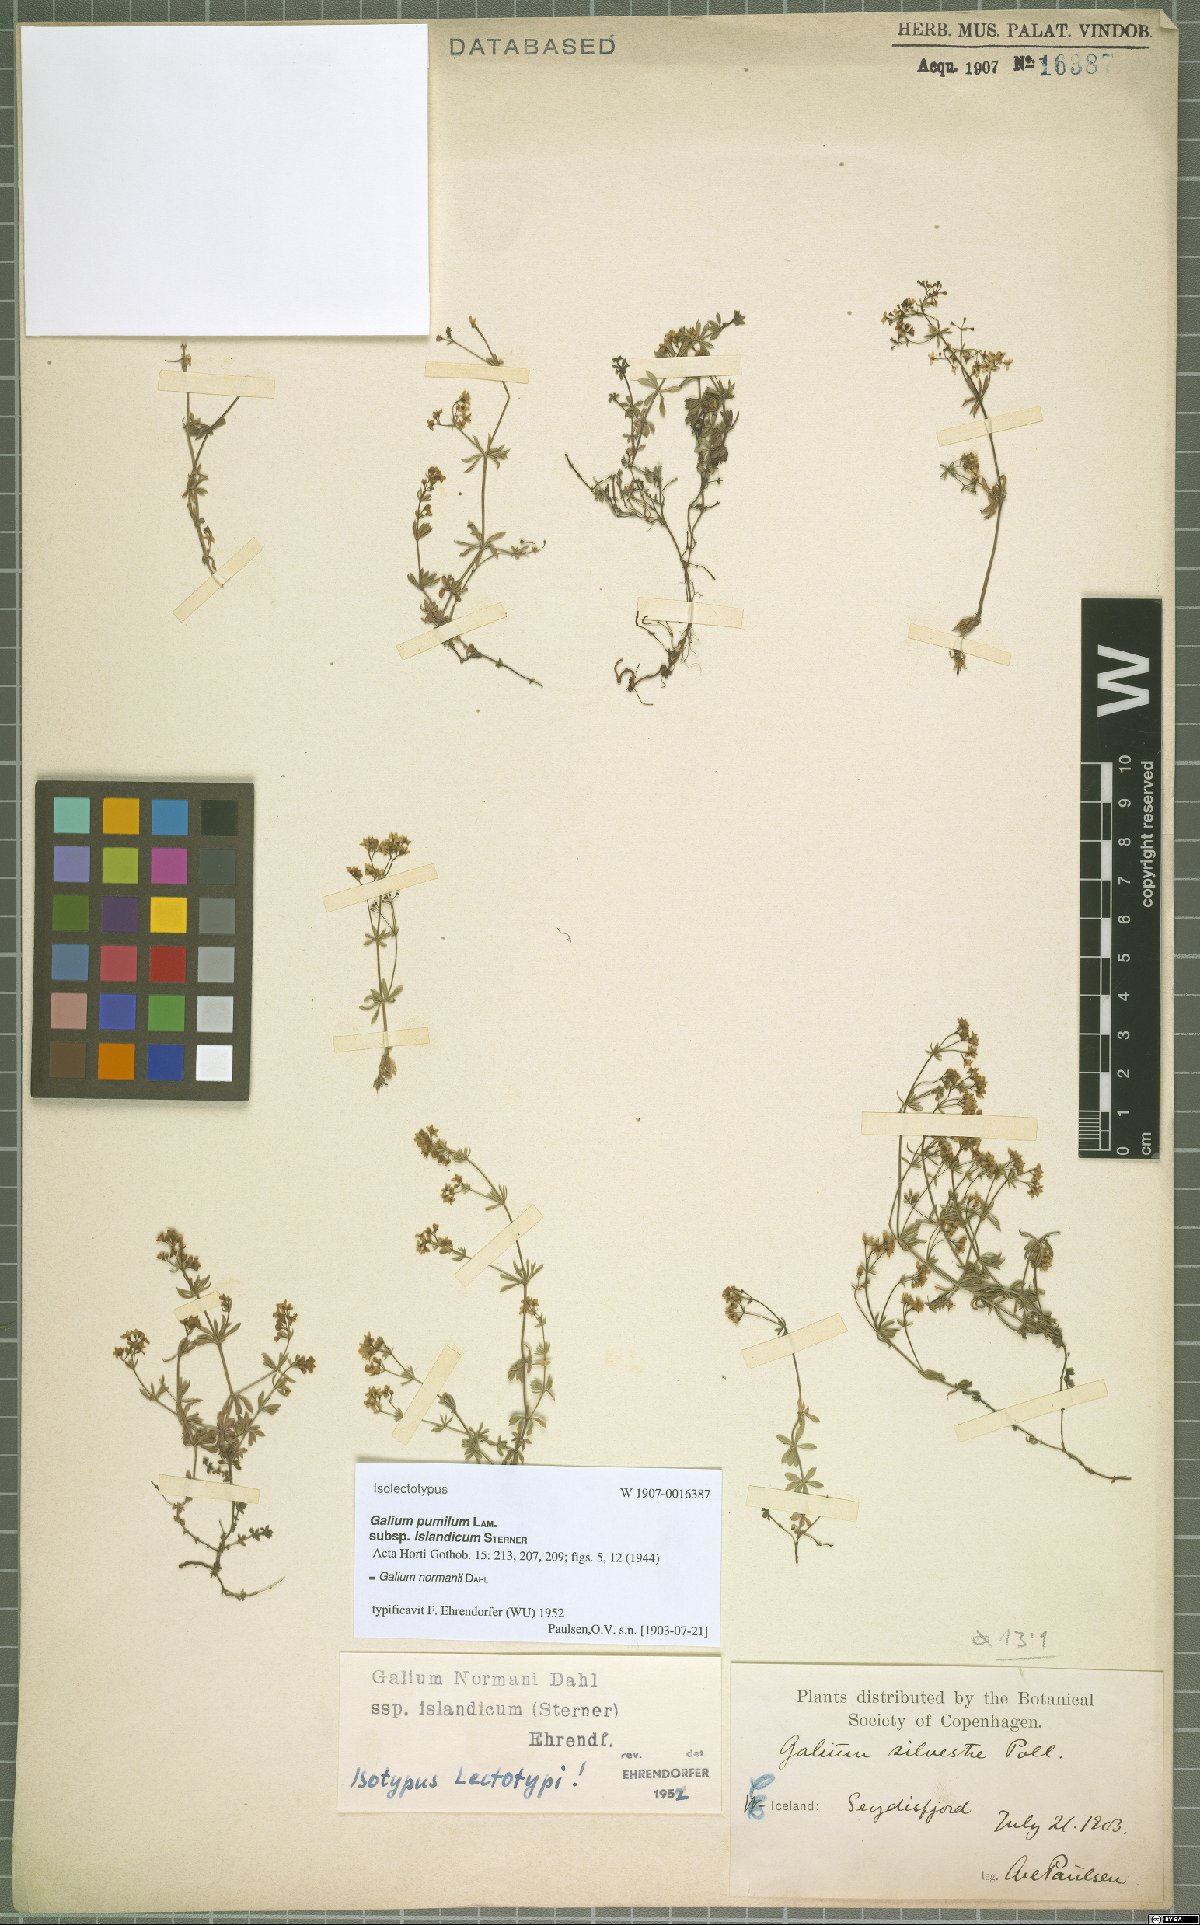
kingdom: Plantae
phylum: Tracheophyta
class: Magnoliopsida
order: Gentianales
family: Rubiaceae
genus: Galium
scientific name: Galium normanii
